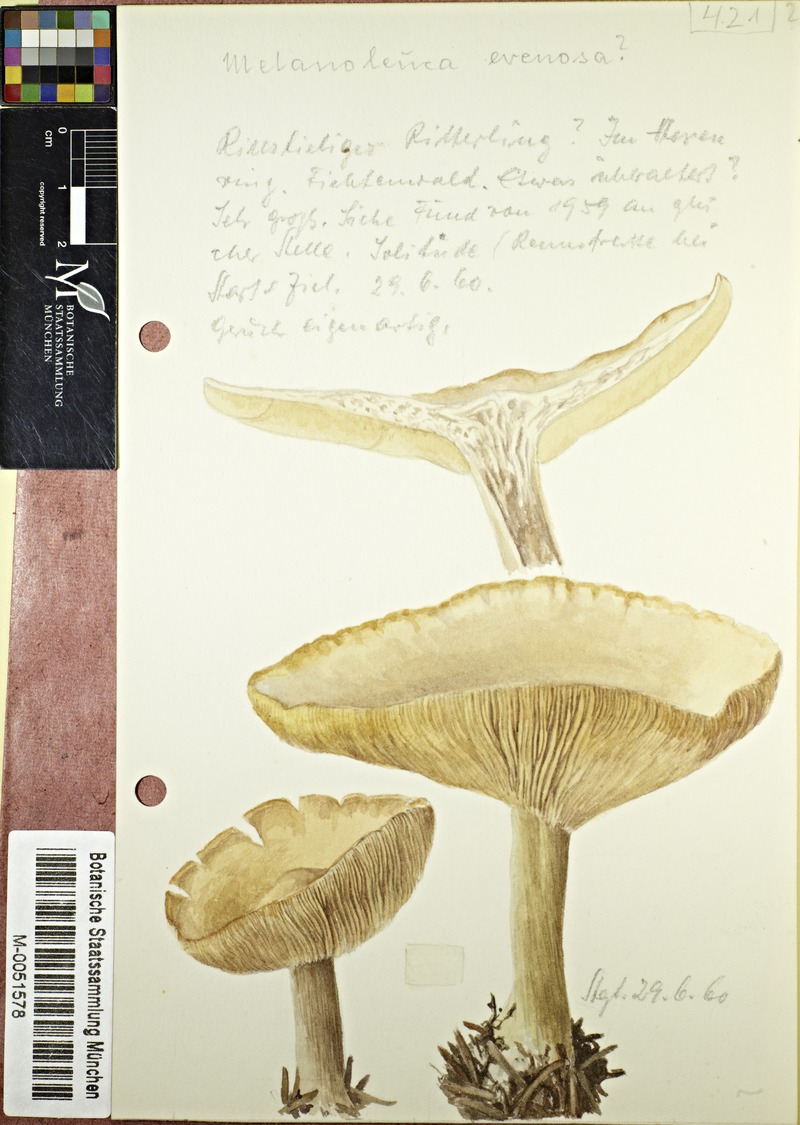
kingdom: Fungi
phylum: Basidiomycota
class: Agaricomycetes
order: Agaricales
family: Tricholomataceae
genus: Tricholoma
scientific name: Tricholoma evenosum
